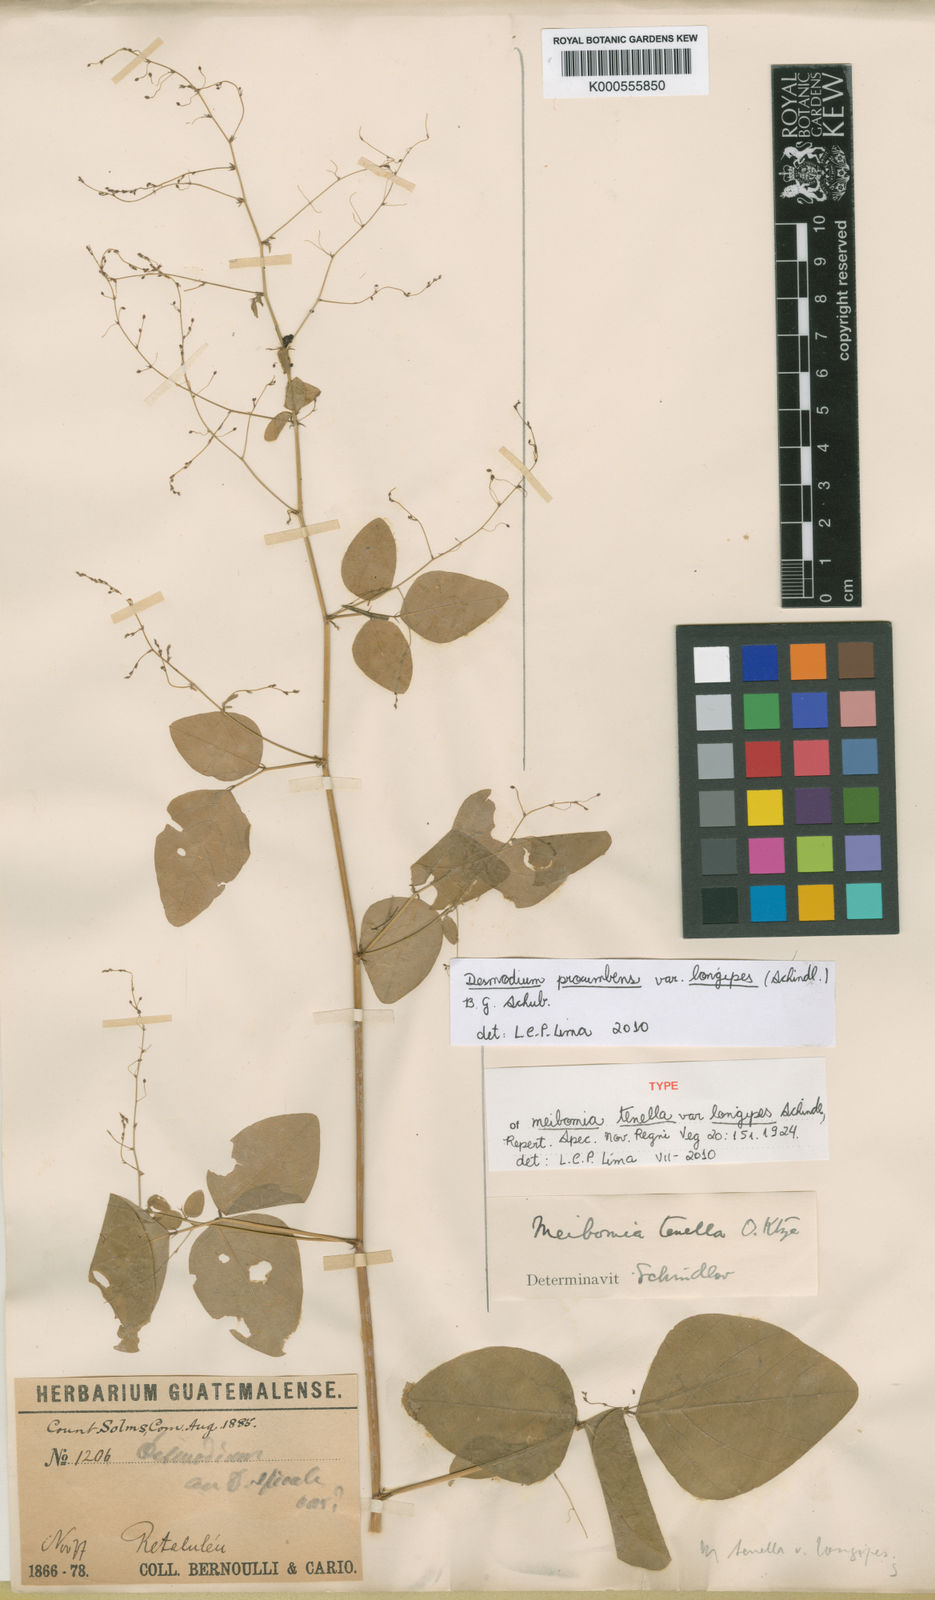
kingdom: Plantae
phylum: Tracheophyta
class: Magnoliopsida
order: Fabales
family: Fabaceae
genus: Desmodium
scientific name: Desmodium procumbens
